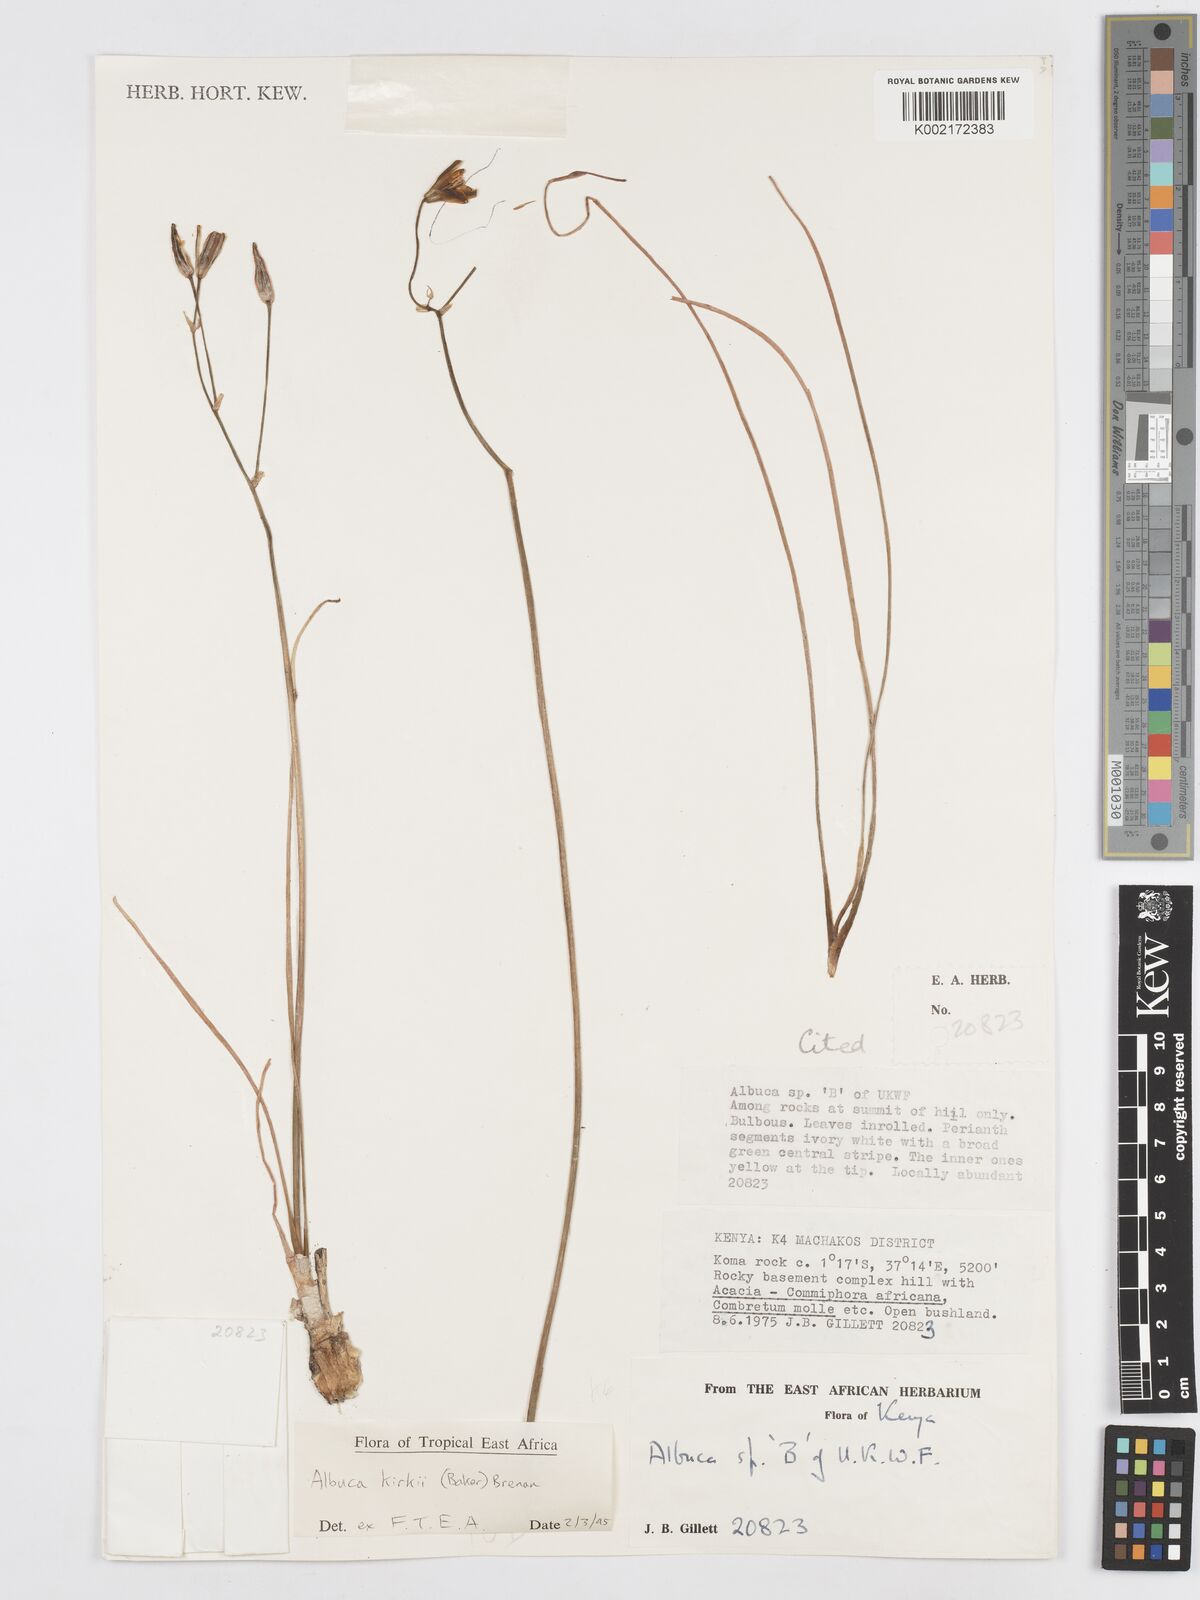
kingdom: Plantae
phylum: Tracheophyta
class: Liliopsida
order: Asparagales
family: Asparagaceae
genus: Albuca
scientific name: Albuca kirkii
